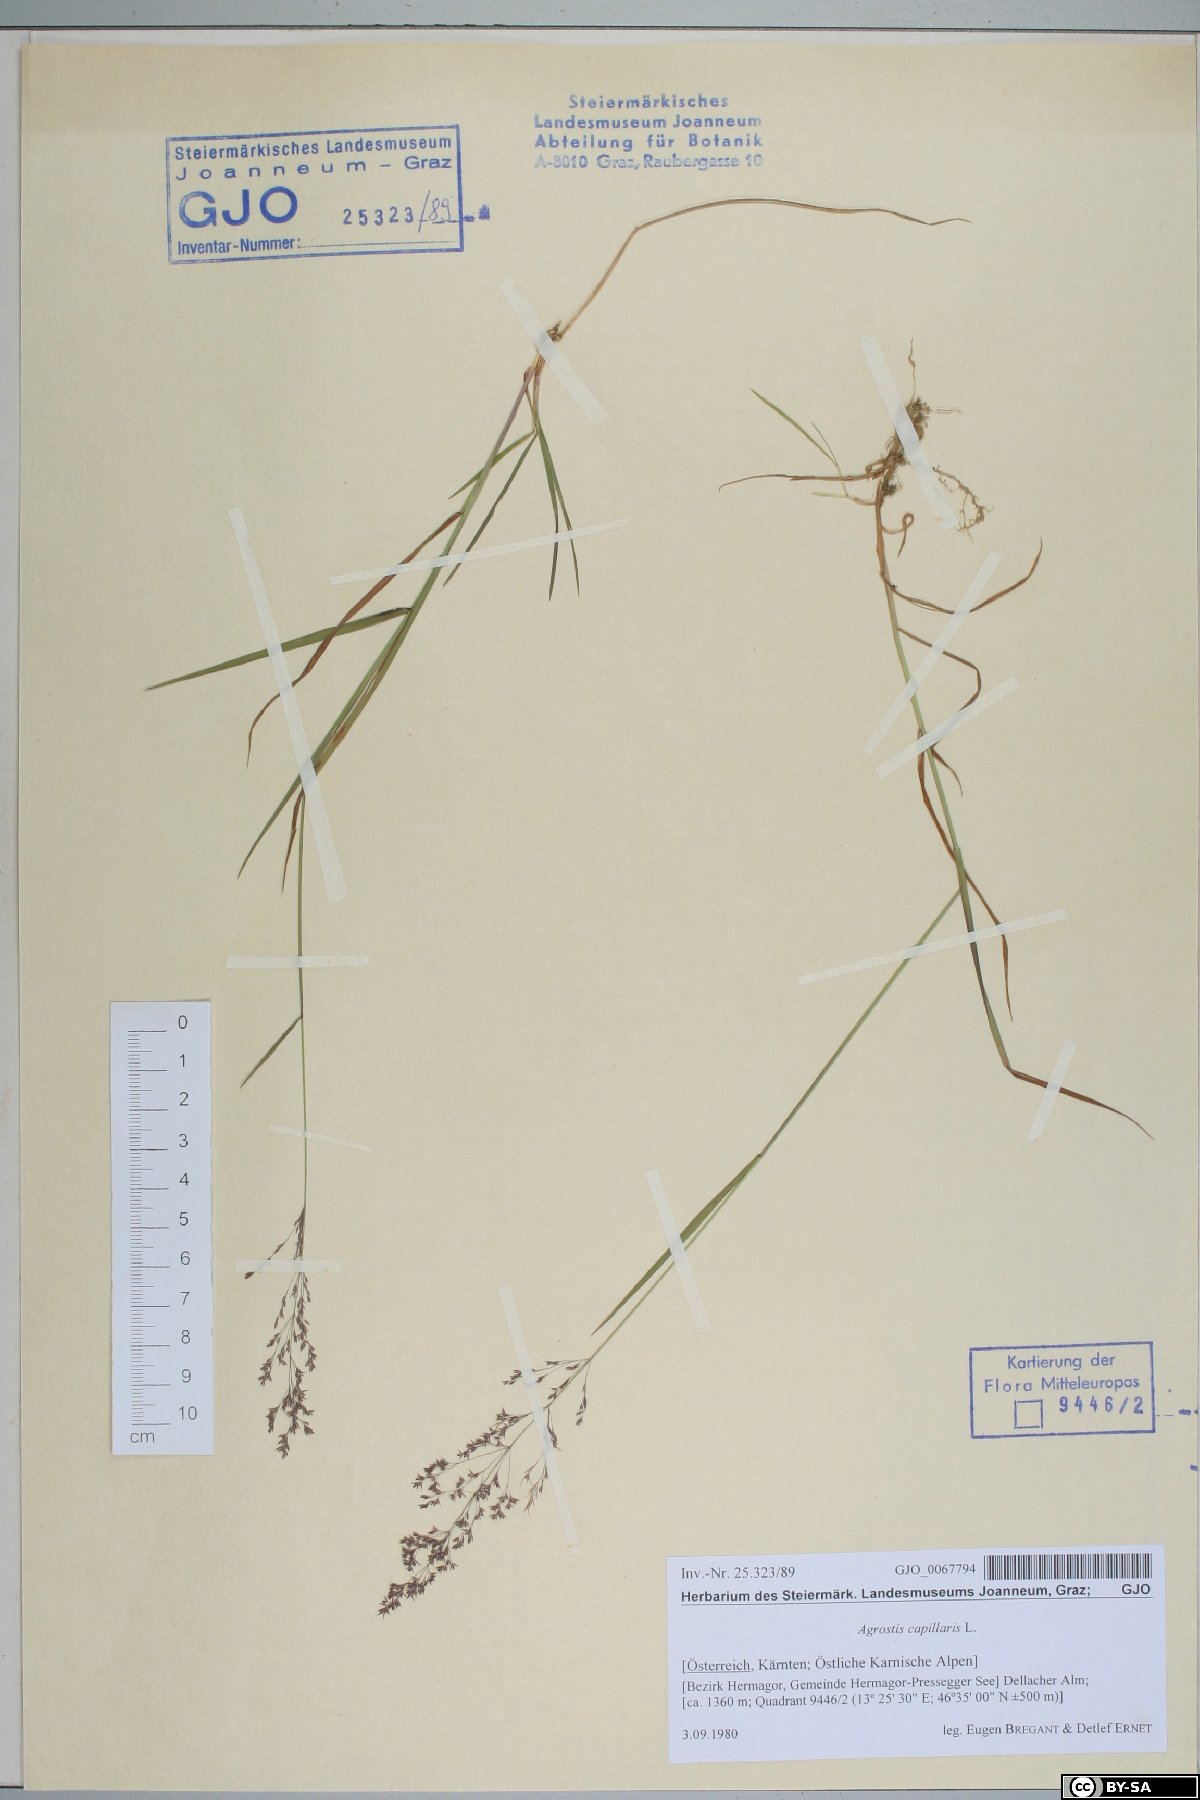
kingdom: Plantae
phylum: Tracheophyta
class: Liliopsida
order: Poales
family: Poaceae
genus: Agrostis
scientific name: Agrostis capillaris
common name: Colonial bentgrass
